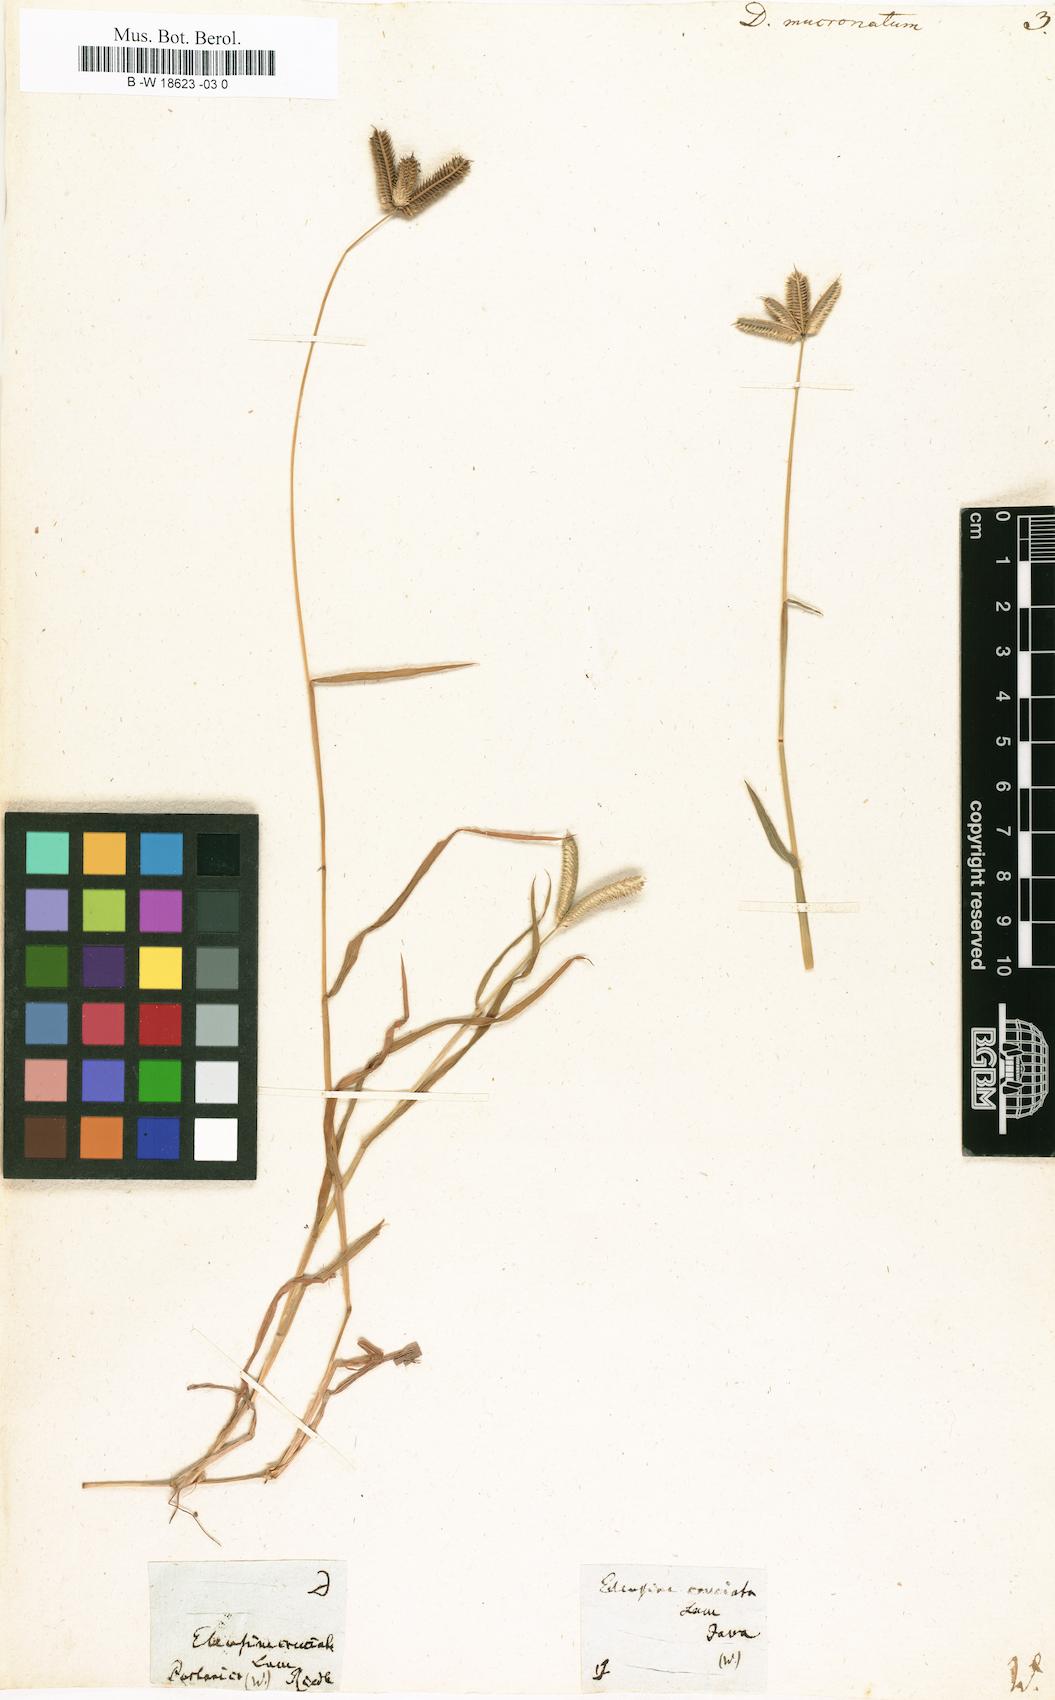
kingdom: Plantae
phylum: Tracheophyta
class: Liliopsida
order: Poales
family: Poaceae
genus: Dactyloctenium
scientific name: Dactyloctenium aegyptium
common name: Egyptian grass
